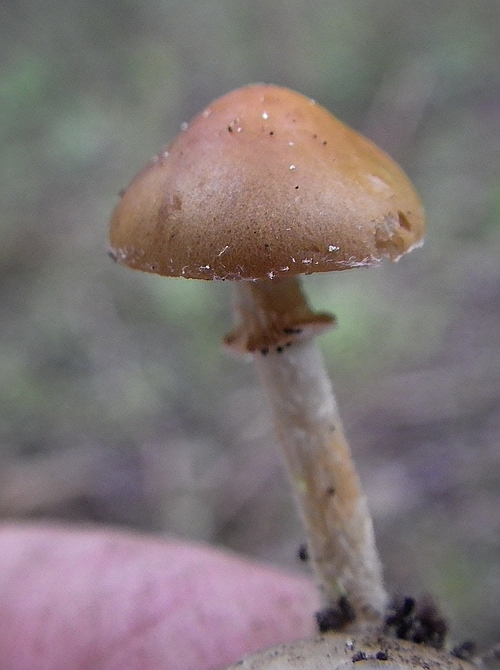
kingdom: Fungi
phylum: Basidiomycota
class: Agaricomycetes
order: Agaricales
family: Bolbitiaceae
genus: Conocybe
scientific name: Conocybe aporos
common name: tidlig dansehat
